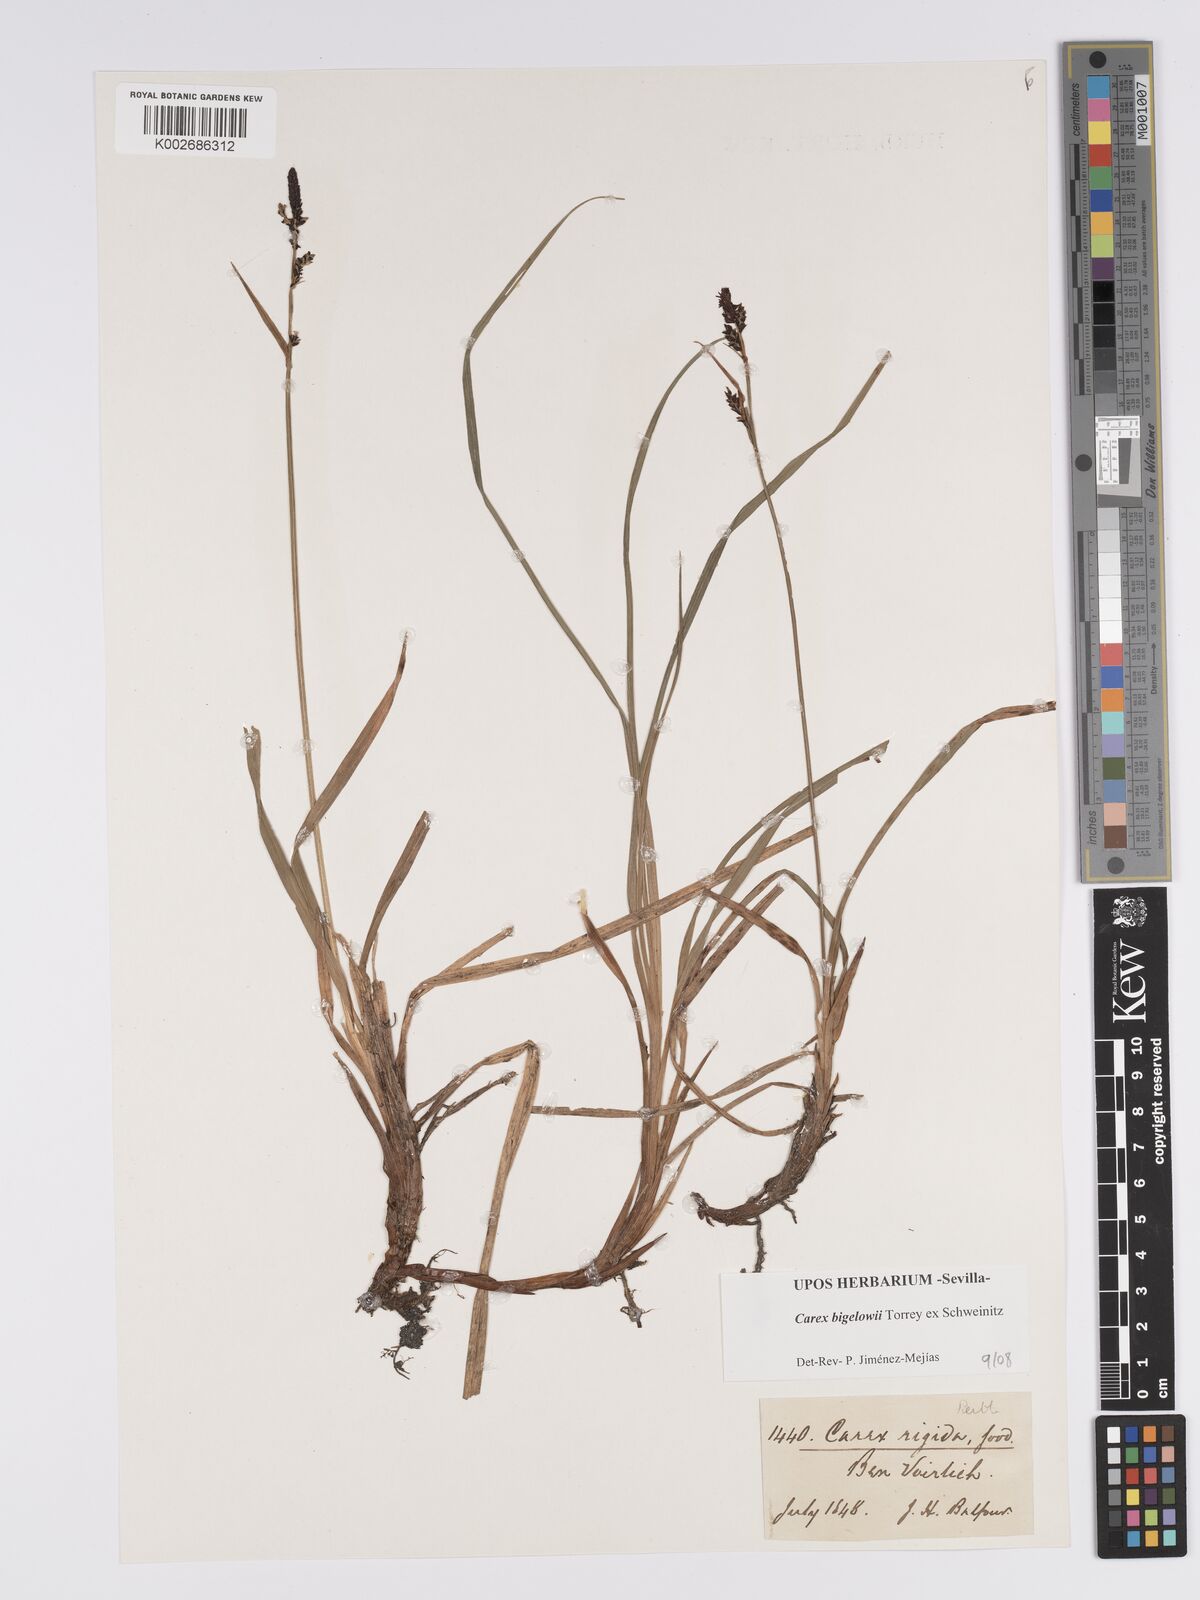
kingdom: Plantae
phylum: Tracheophyta
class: Liliopsida
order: Poales
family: Cyperaceae
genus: Carex
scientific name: Carex bigelowii
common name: Stiff sedge
